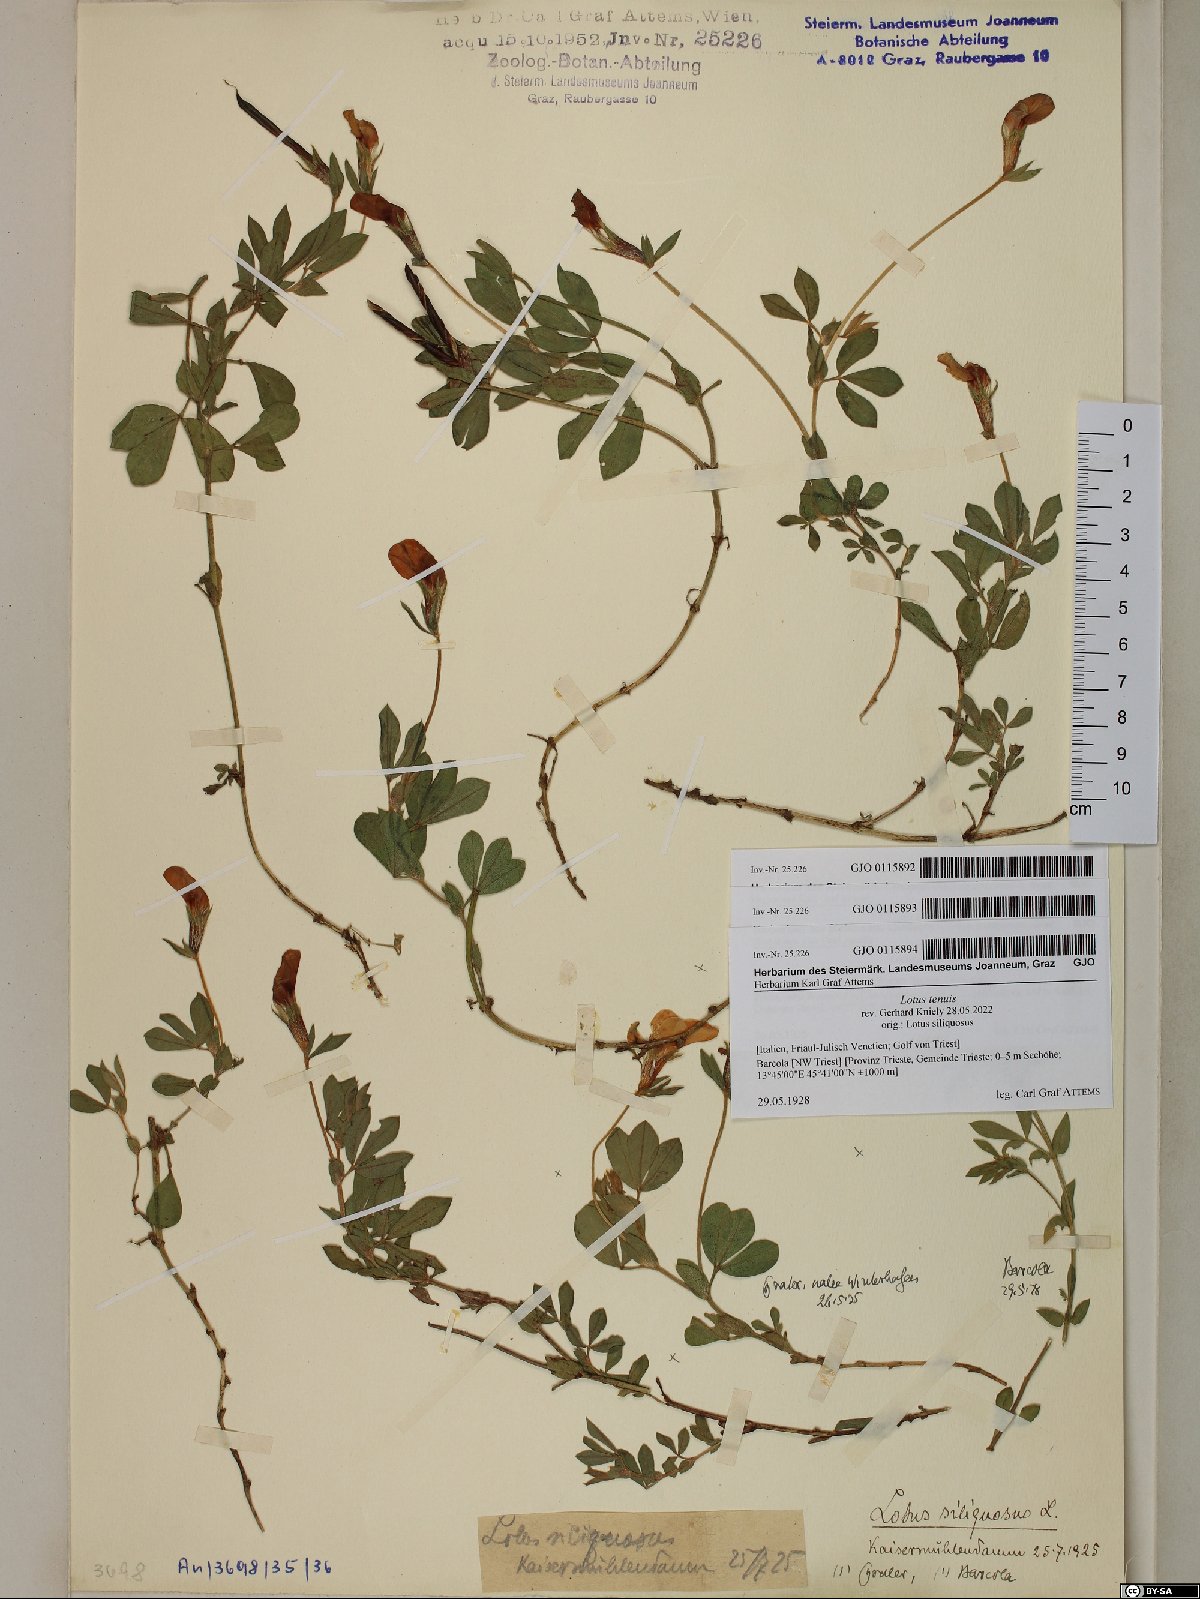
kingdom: Plantae
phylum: Tracheophyta
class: Magnoliopsida
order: Fabales
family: Fabaceae
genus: Lathyrus
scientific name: Lathyrus inconspicuus
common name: Inconspicuous pea
